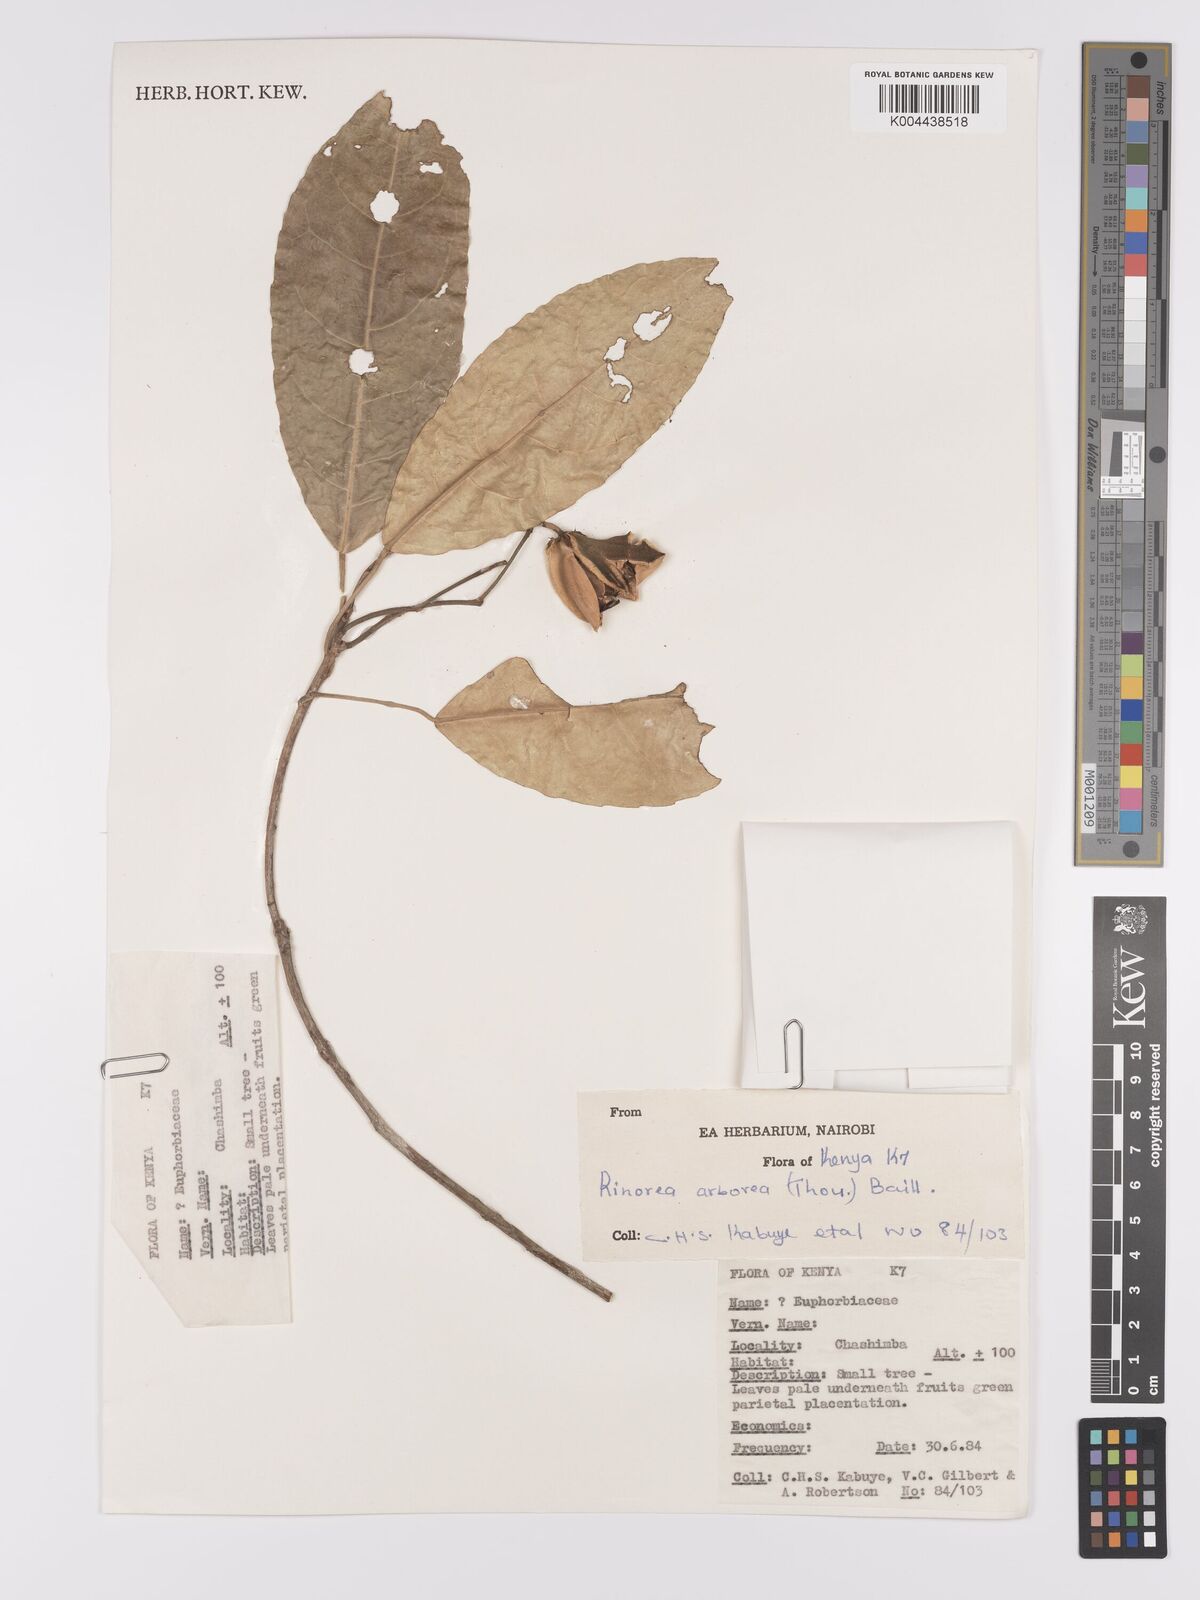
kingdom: Plantae
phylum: Tracheophyta
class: Magnoliopsida
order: Malpighiales
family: Violaceae
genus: Rinorea
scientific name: Rinorea arborea
